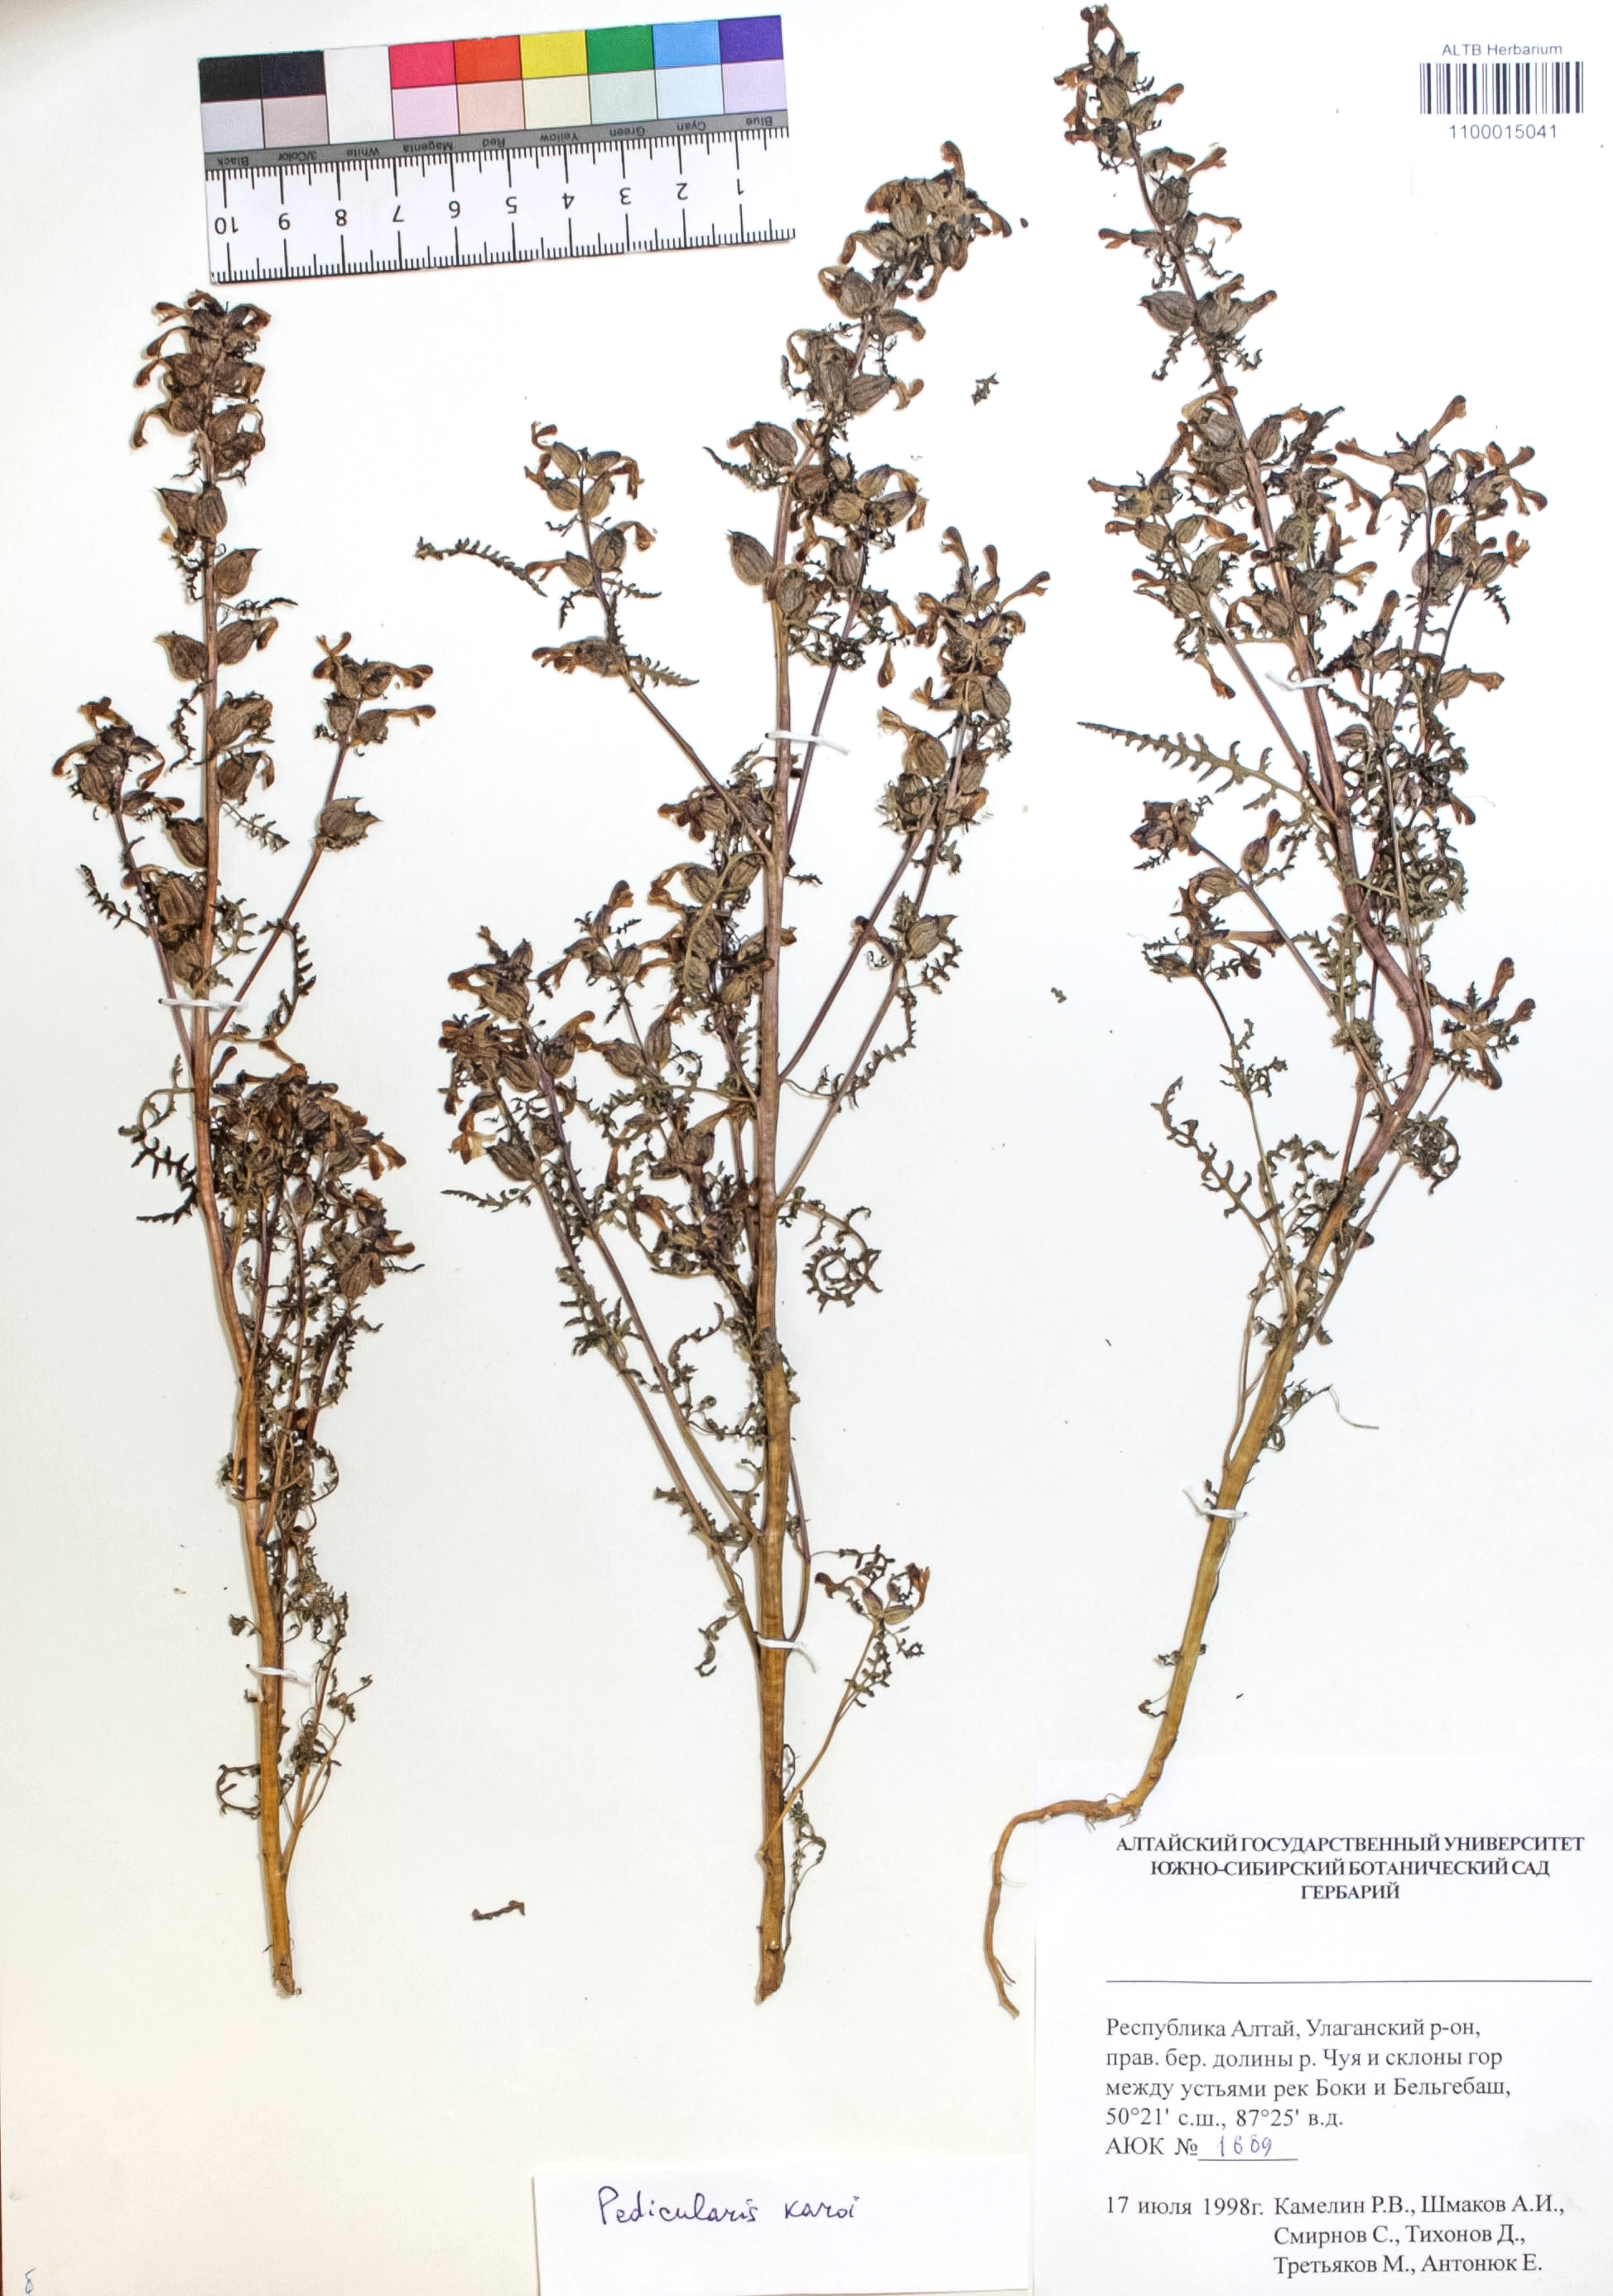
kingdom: Plantae
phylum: Tracheophyta
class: Magnoliopsida
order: Lamiales
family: Orobanchaceae
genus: Pedicularis
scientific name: Pedicularis karoi
